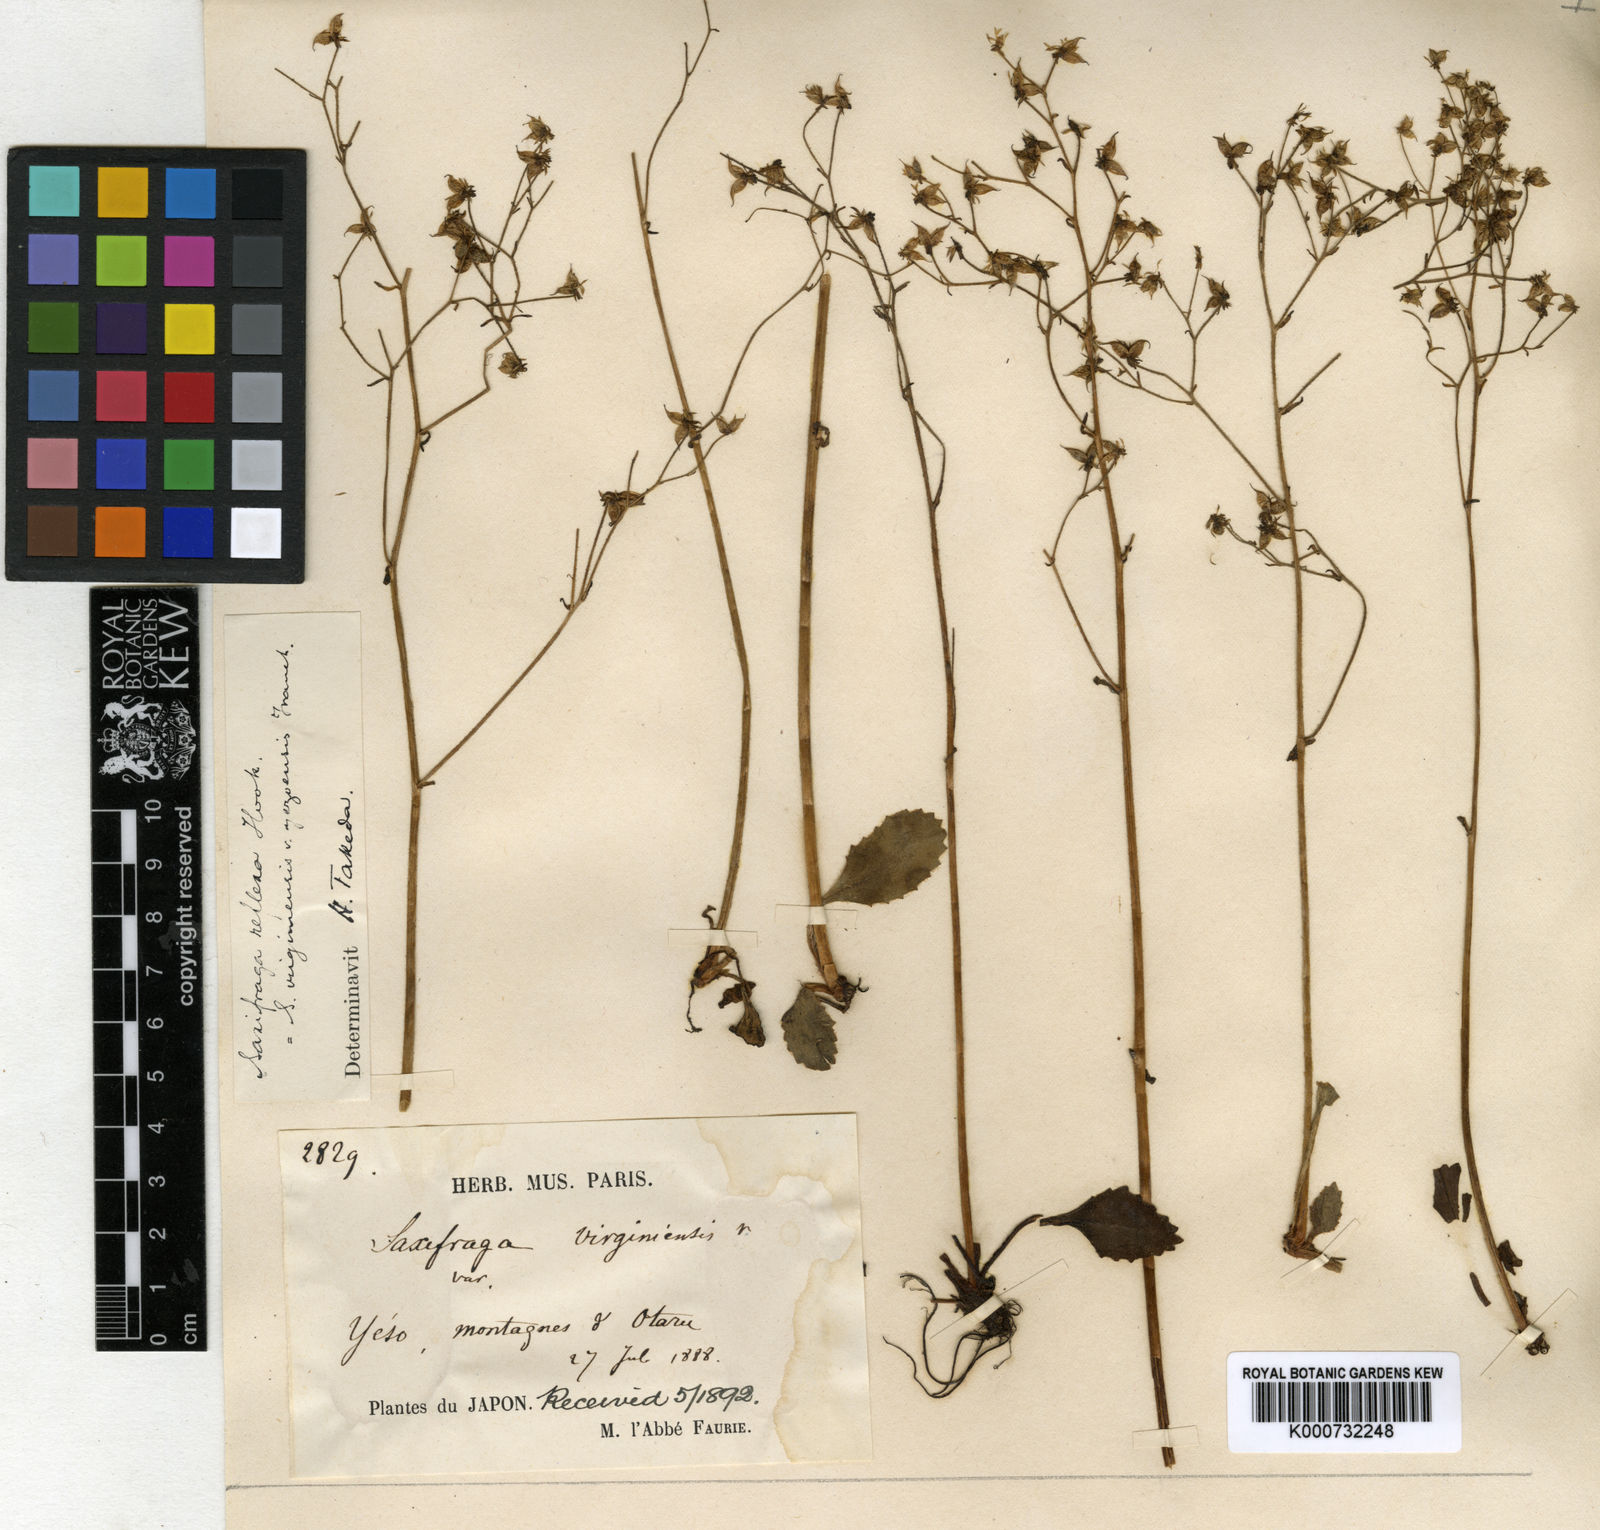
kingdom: Plantae
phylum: Tracheophyta
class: Magnoliopsida
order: Saxifragales
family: Saxifragaceae
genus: Micranthes
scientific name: Micranthes sachalinensis
